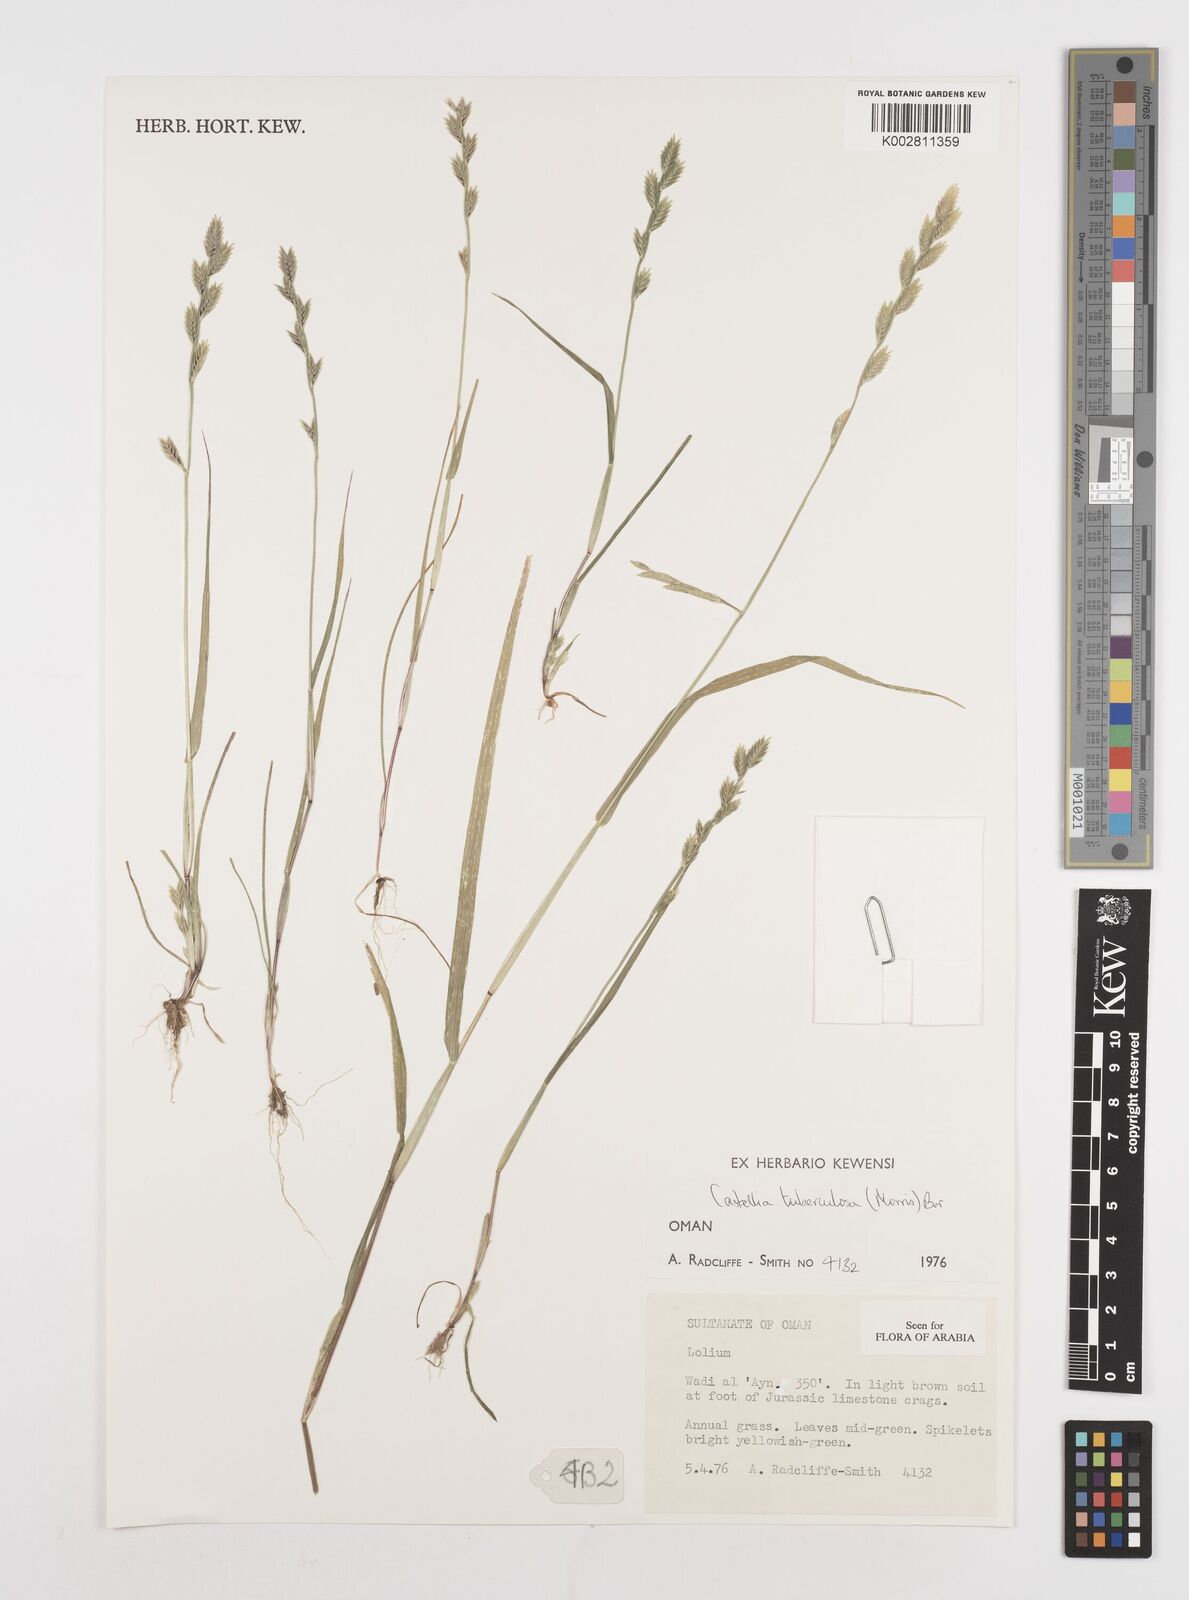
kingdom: Plantae
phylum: Tracheophyta
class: Liliopsida
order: Poales
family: Poaceae
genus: Castellia
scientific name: Castellia tuberculosa
